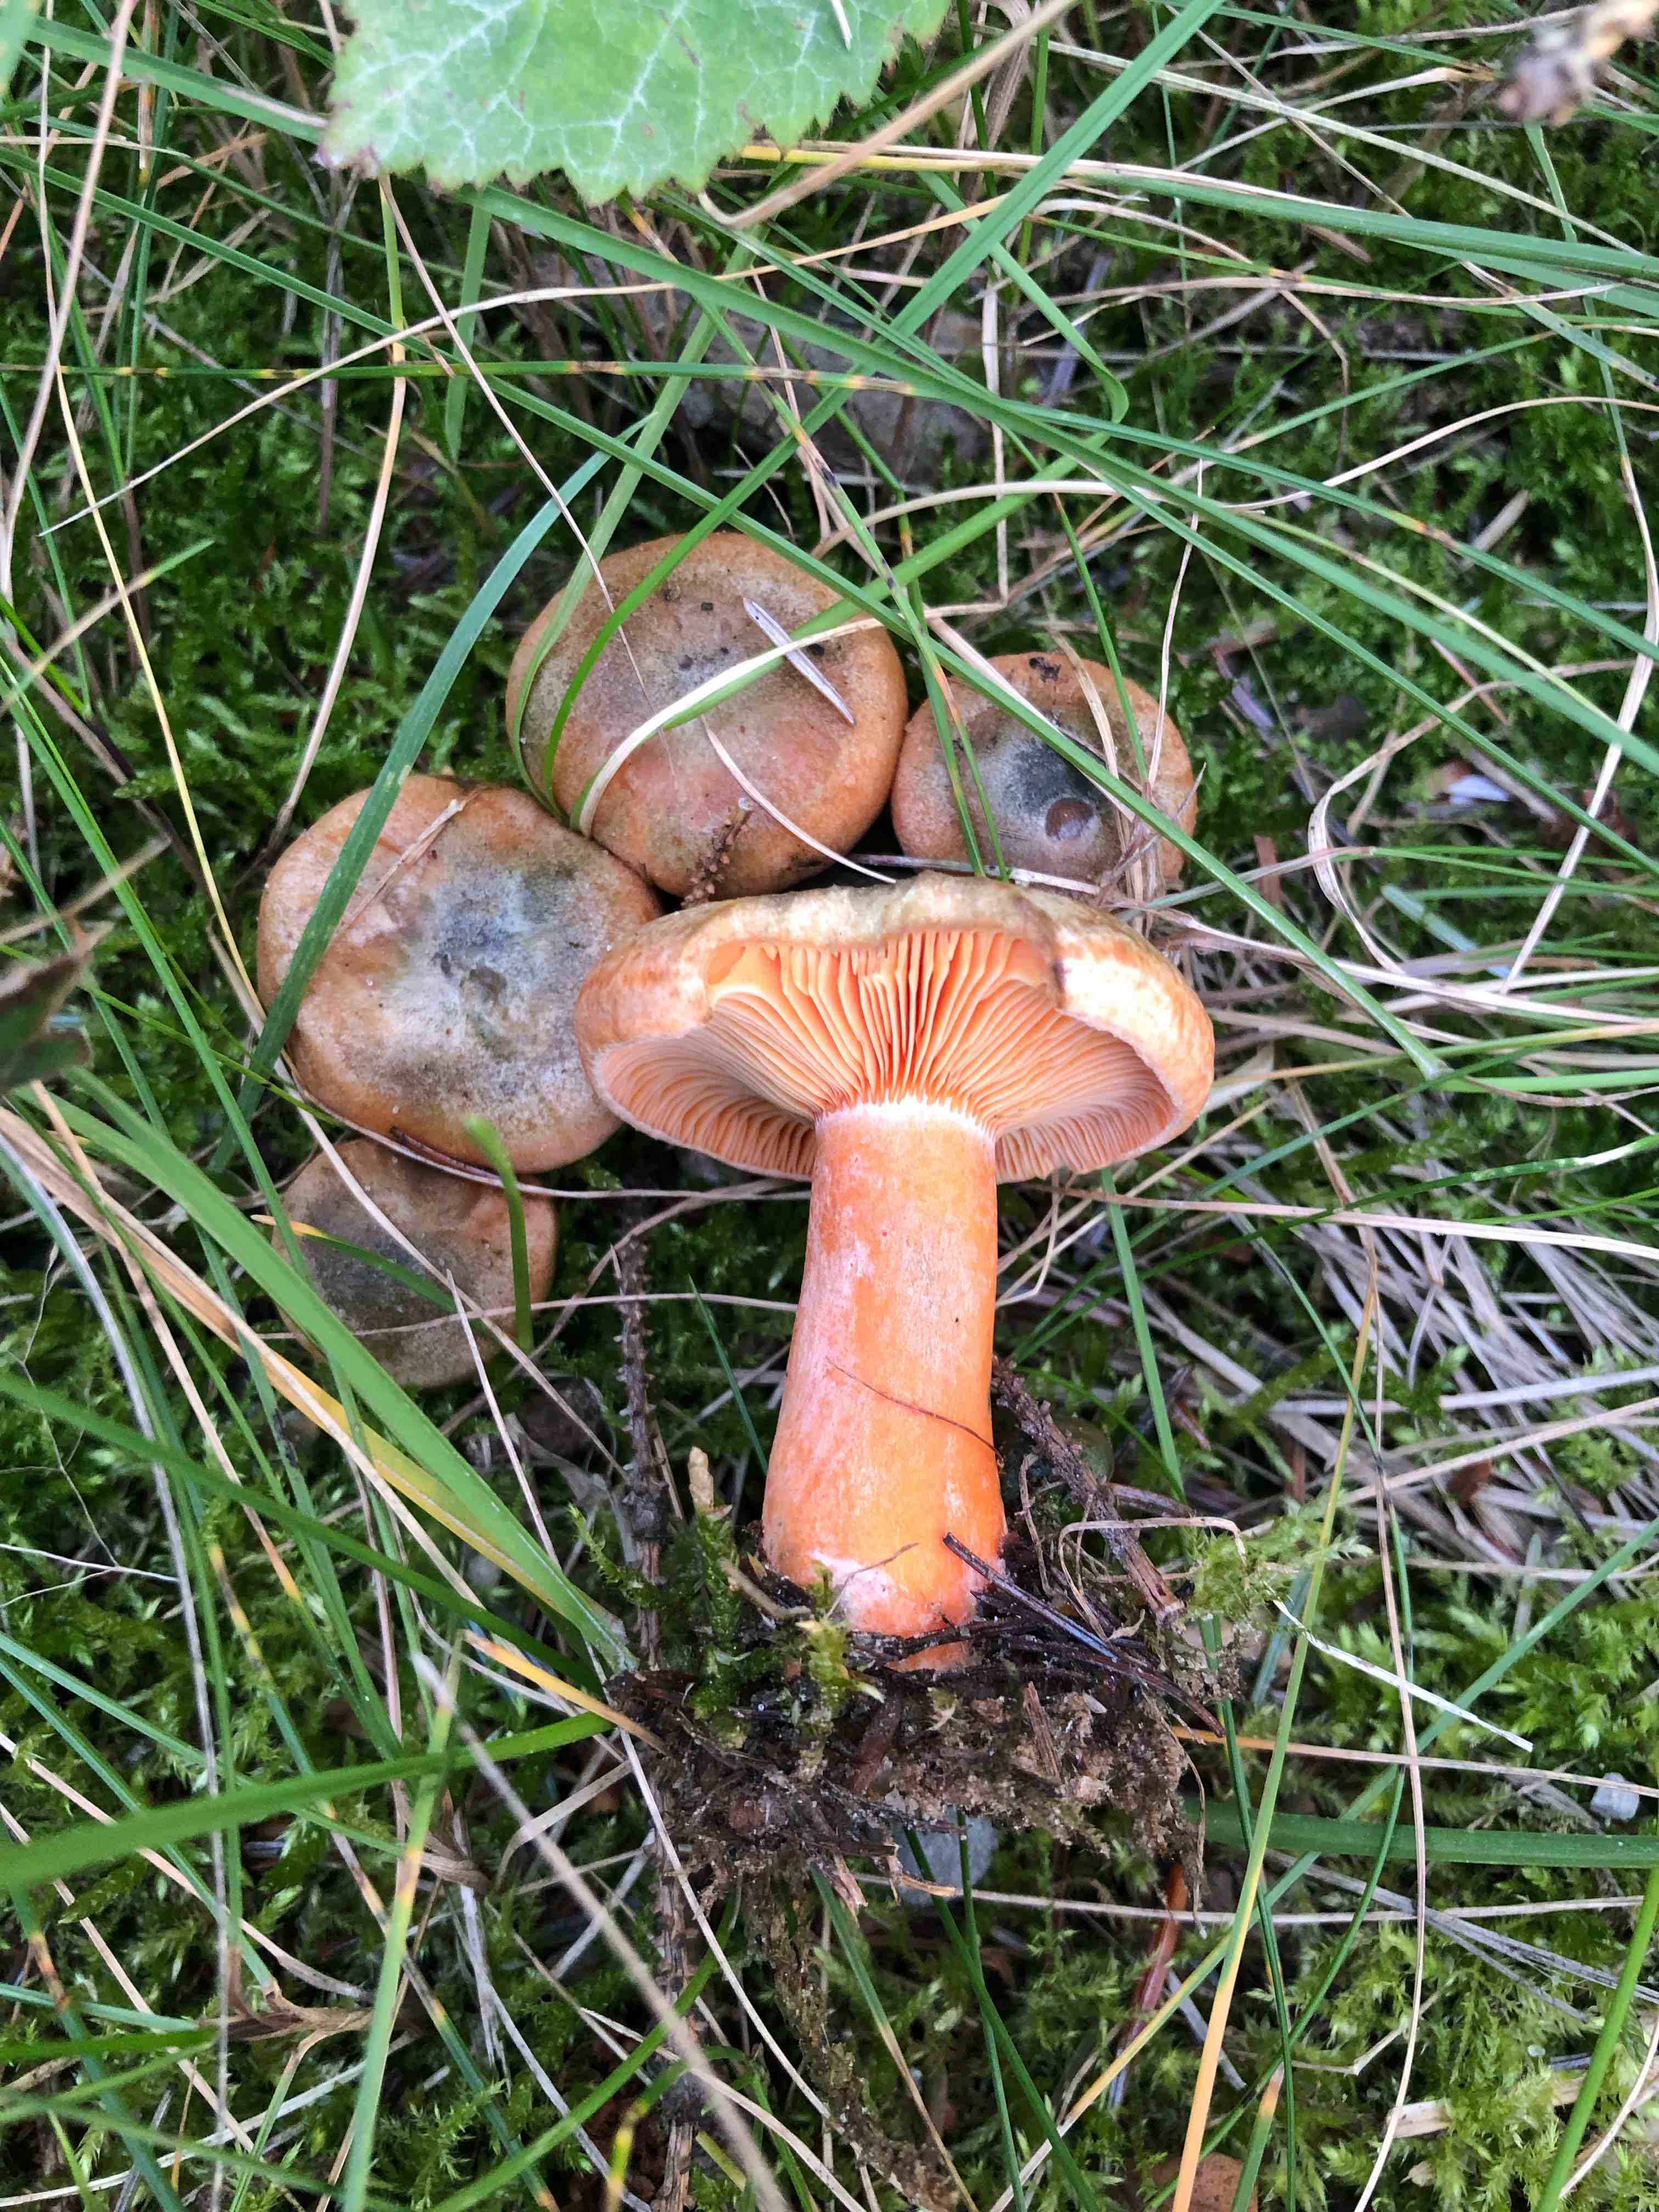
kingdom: Fungi
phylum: Basidiomycota
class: Agaricomycetes
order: Russulales
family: Russulaceae
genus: Lactarius
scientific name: Lactarius deterrimus
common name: gran-mælkehat
